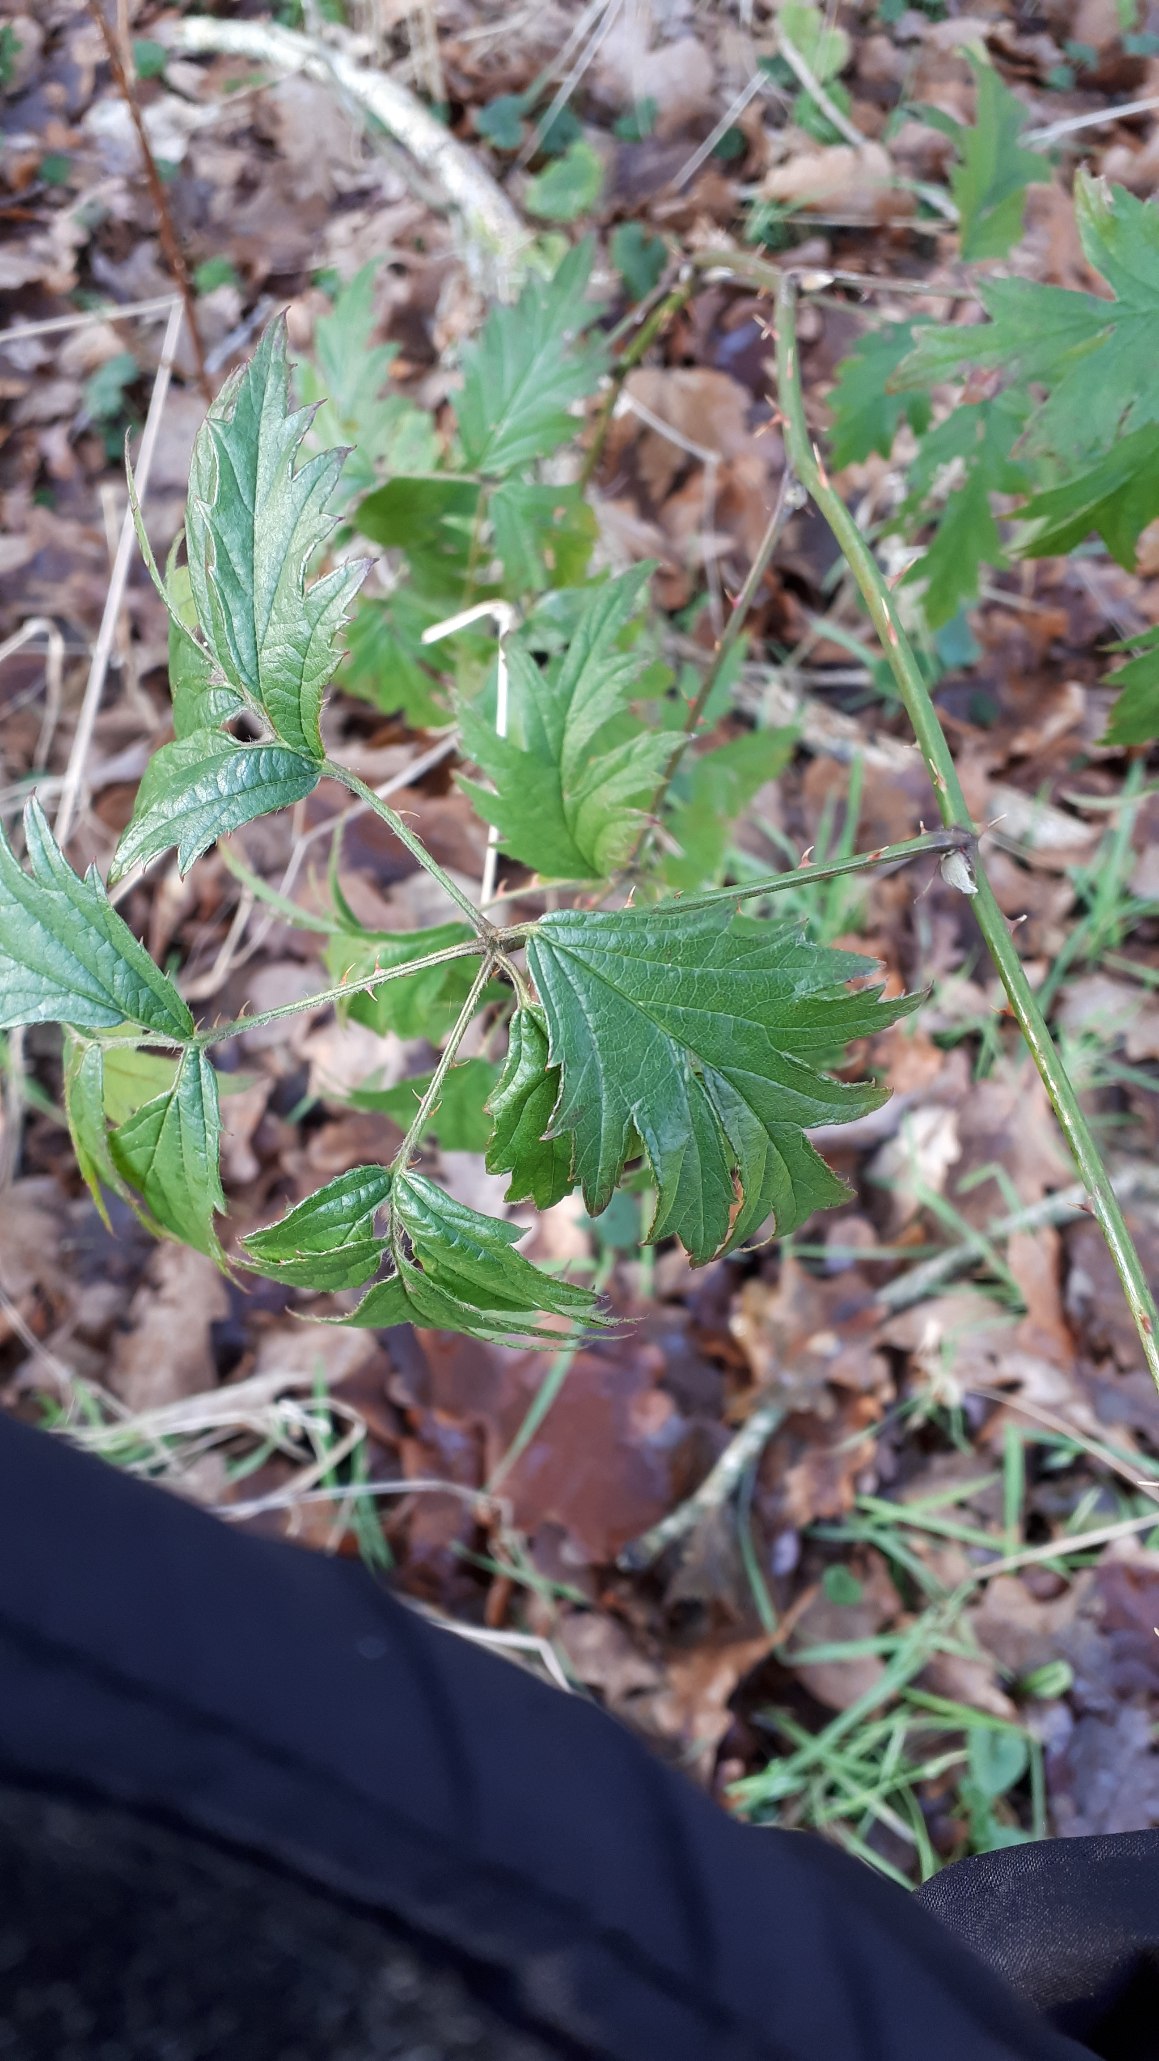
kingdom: Plantae
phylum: Tracheophyta
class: Magnoliopsida
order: Rosales
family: Rosaceae
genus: Rubus
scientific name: Rubus laciniatus
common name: Fliget brombær
